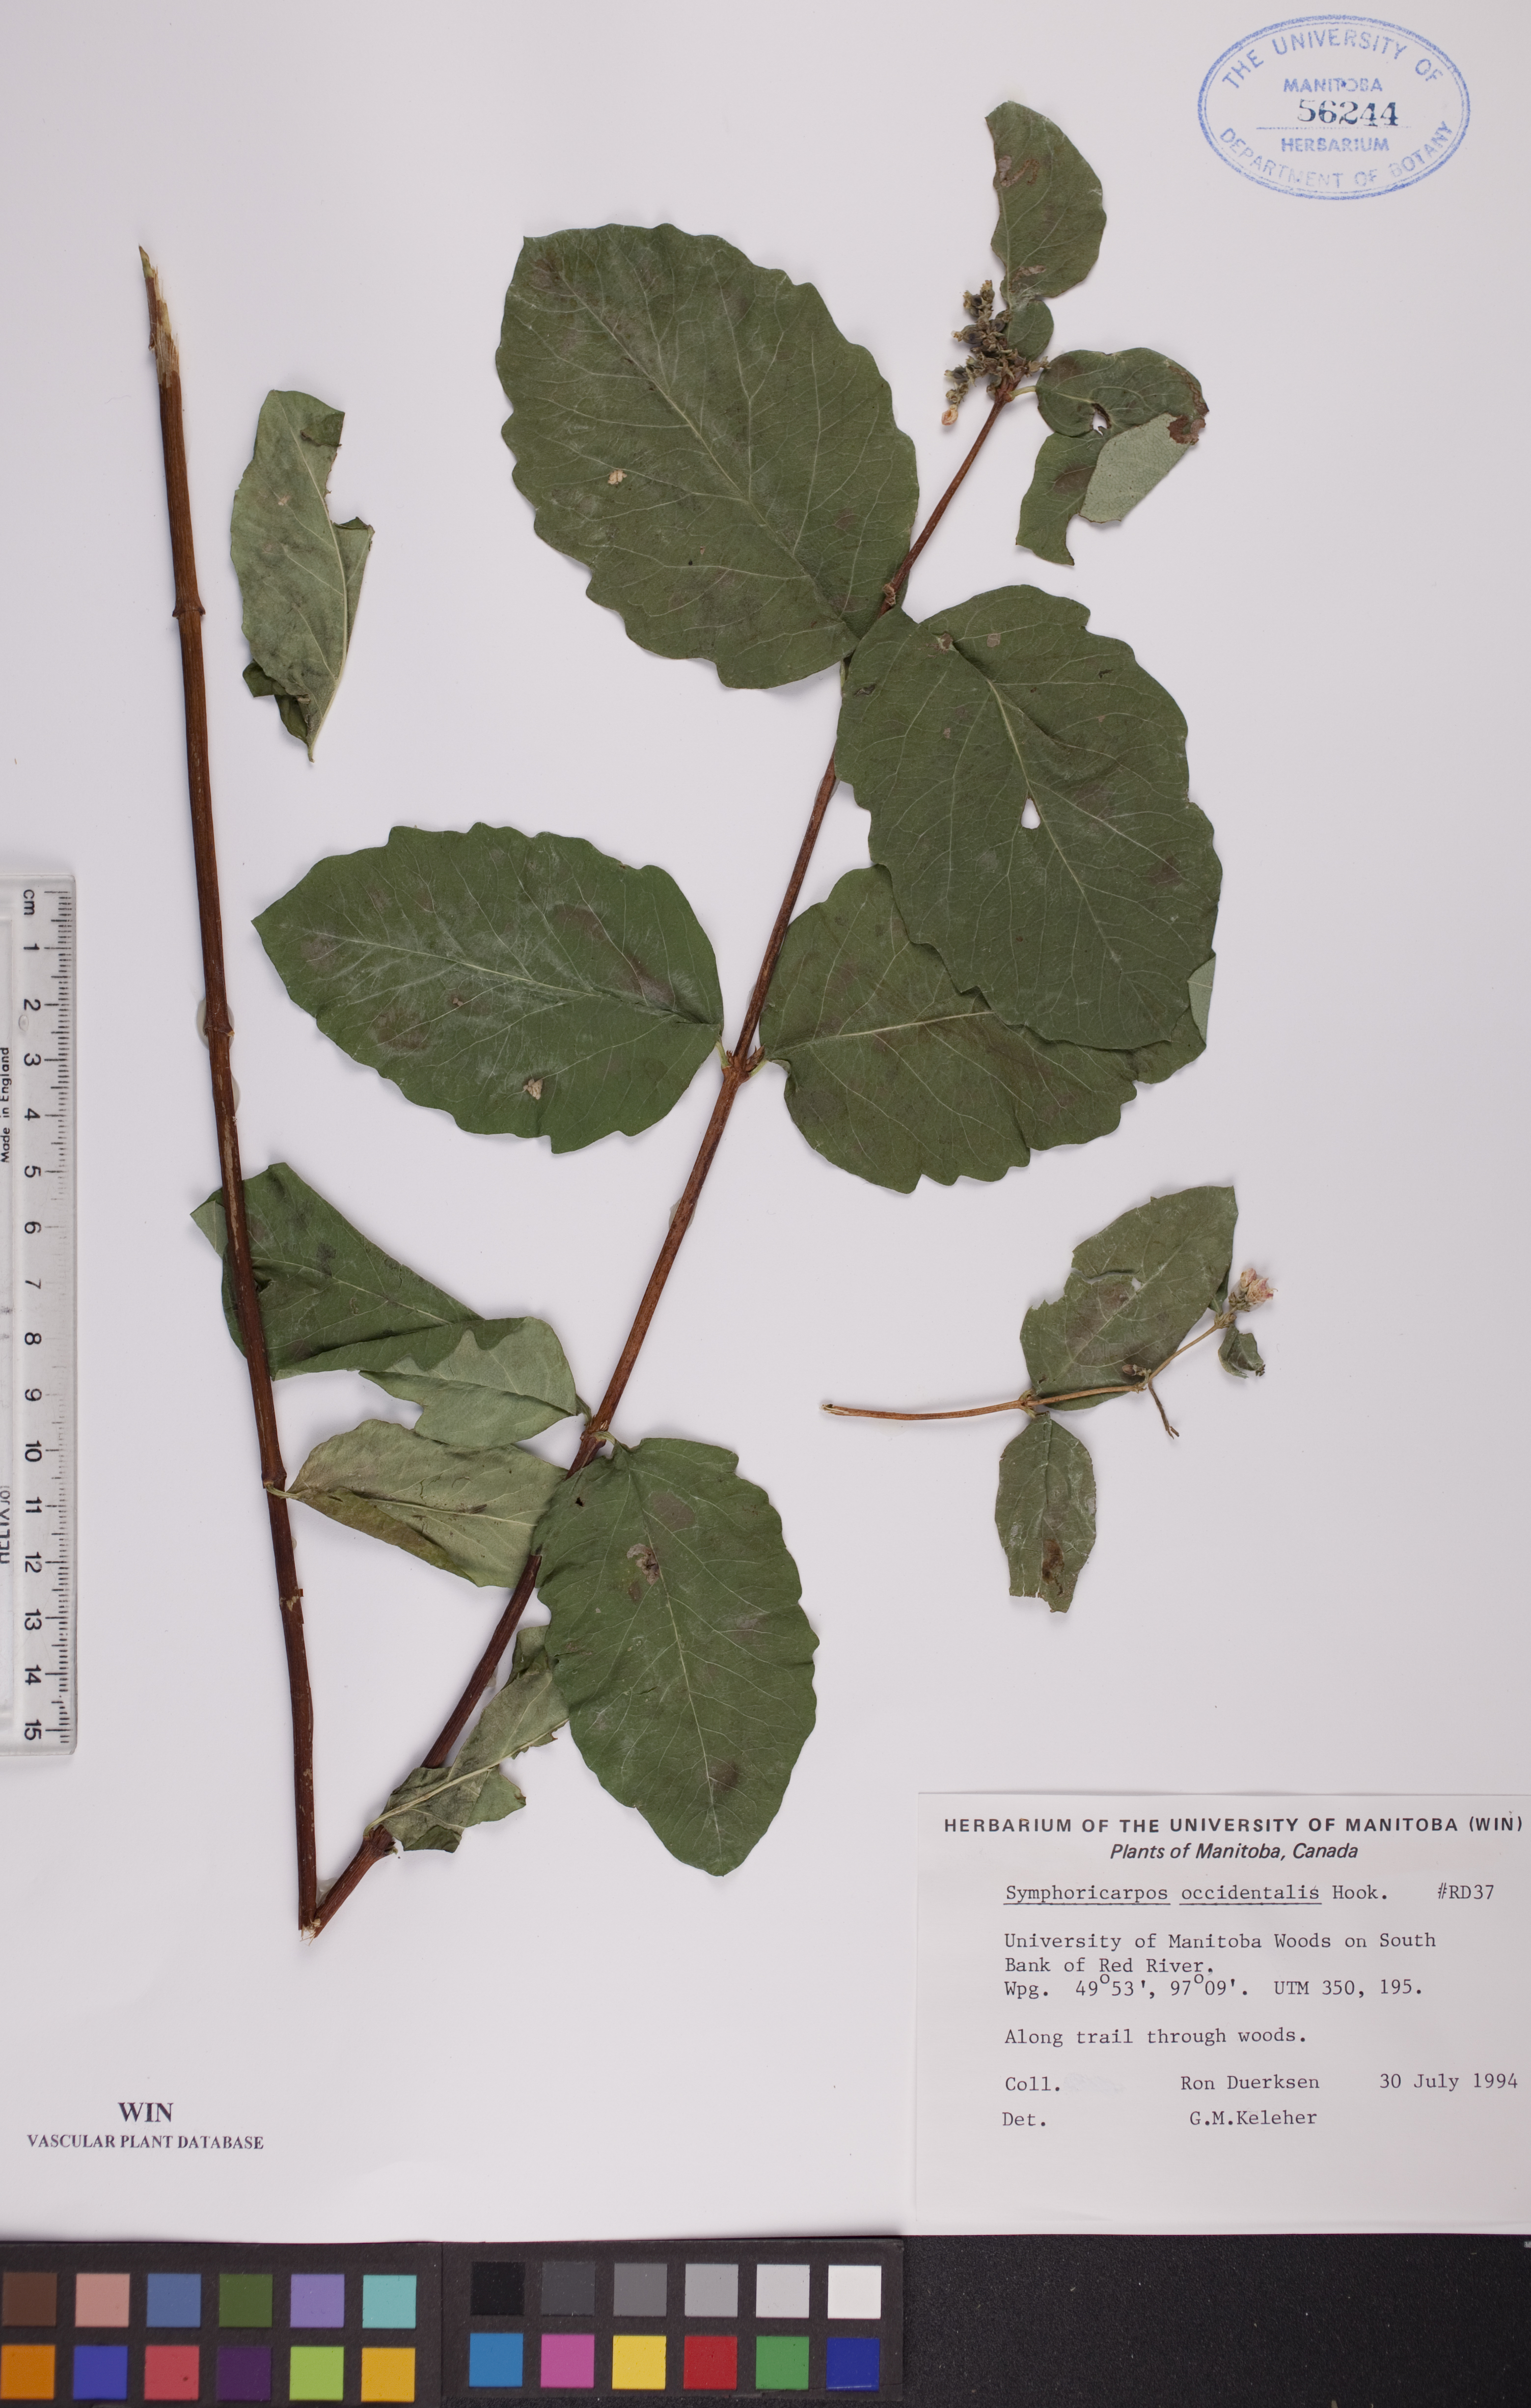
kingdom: Plantae
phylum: Tracheophyta
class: Magnoliopsida
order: Dipsacales
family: Caprifoliaceae
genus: Symphoricarpos
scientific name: Symphoricarpos occidentalis
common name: Wolfberry
